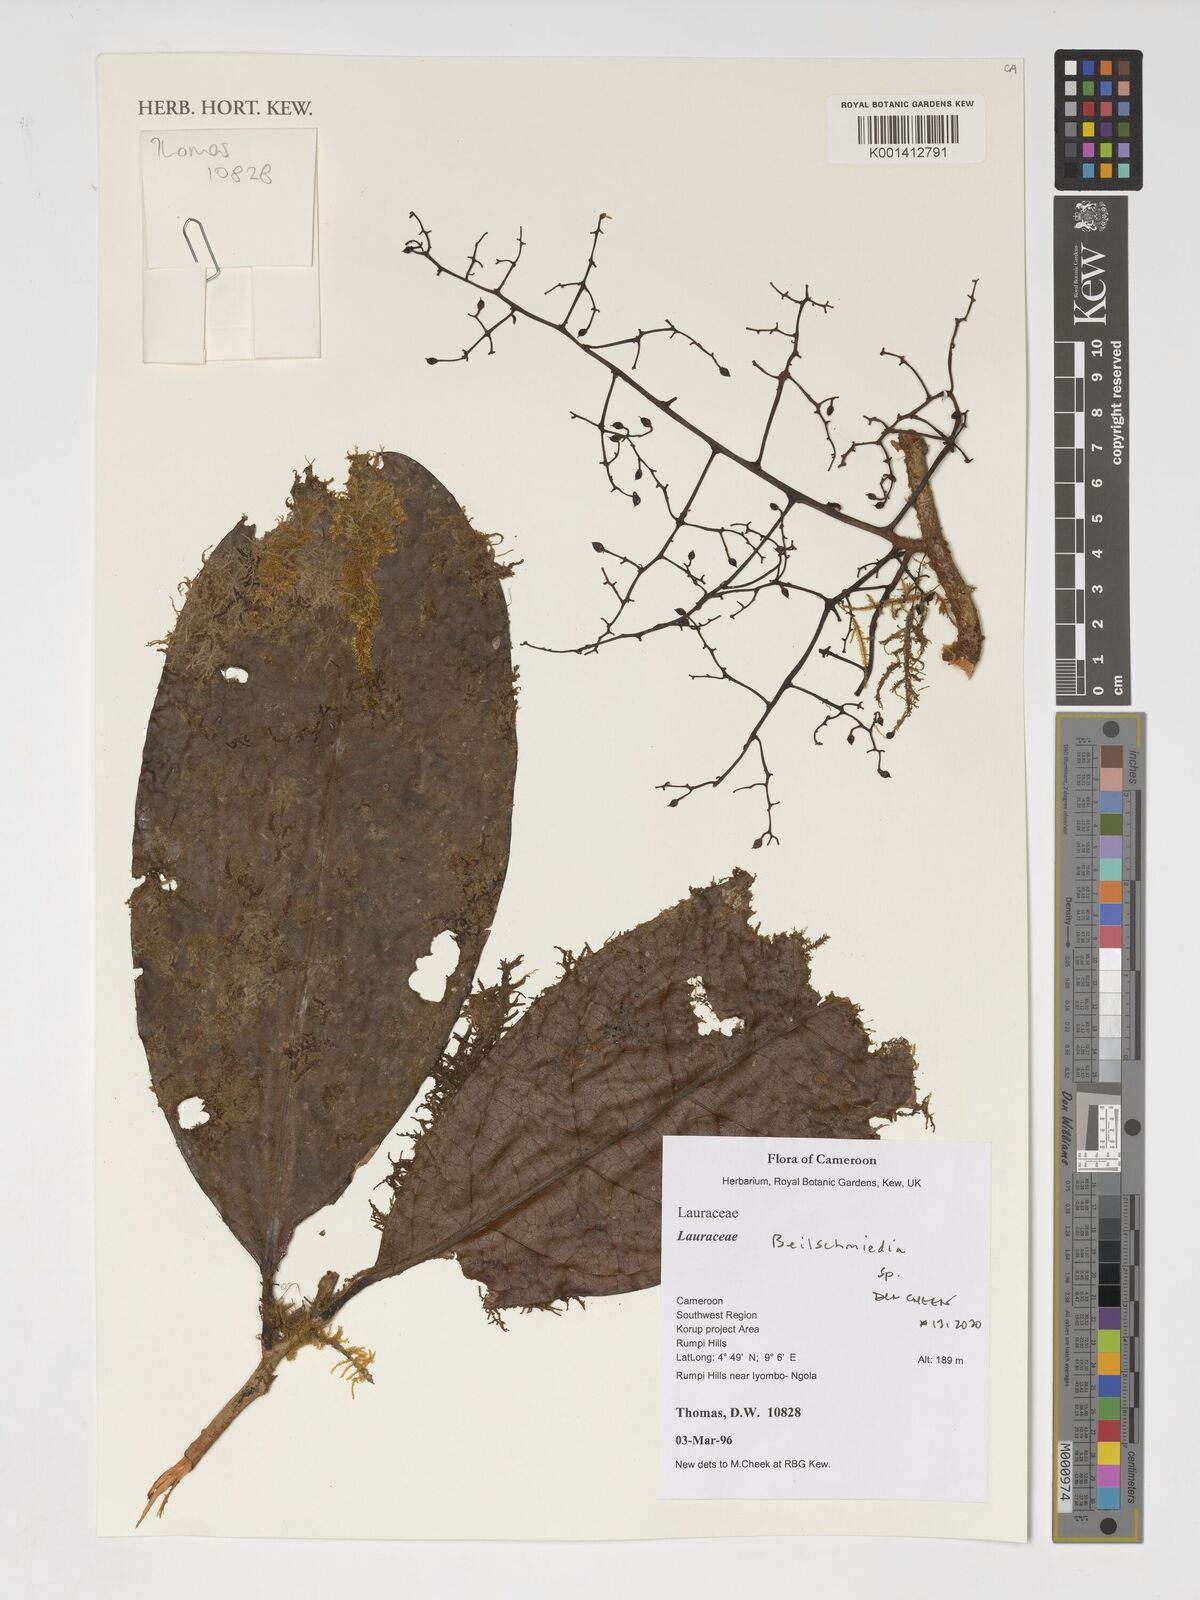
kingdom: Plantae
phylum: Tracheophyta
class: Magnoliopsida
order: Laurales
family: Lauraceae
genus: Beilschmiedia
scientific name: Beilschmiedia
